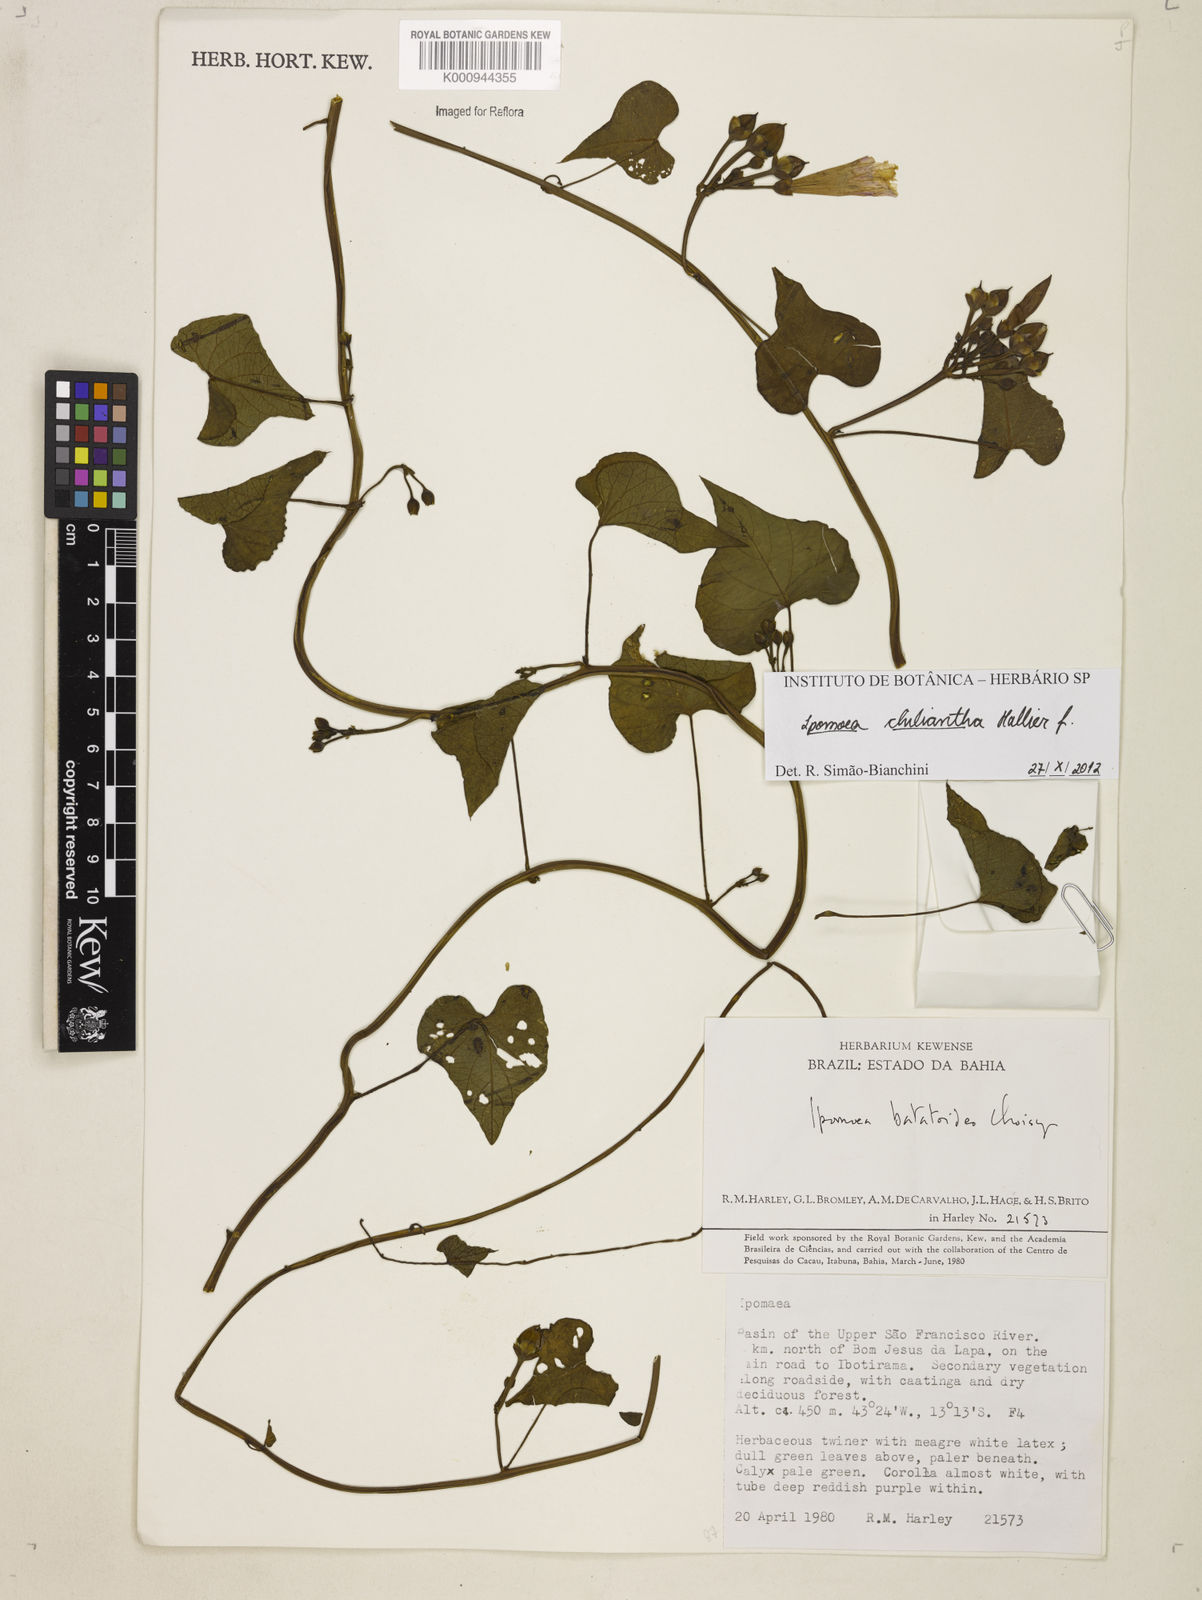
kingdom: Plantae
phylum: Tracheophyta
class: Magnoliopsida
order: Solanales
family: Convolvulaceae
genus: Ipomoea
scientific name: Ipomoea amnicola
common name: Redcenter morning-glory
